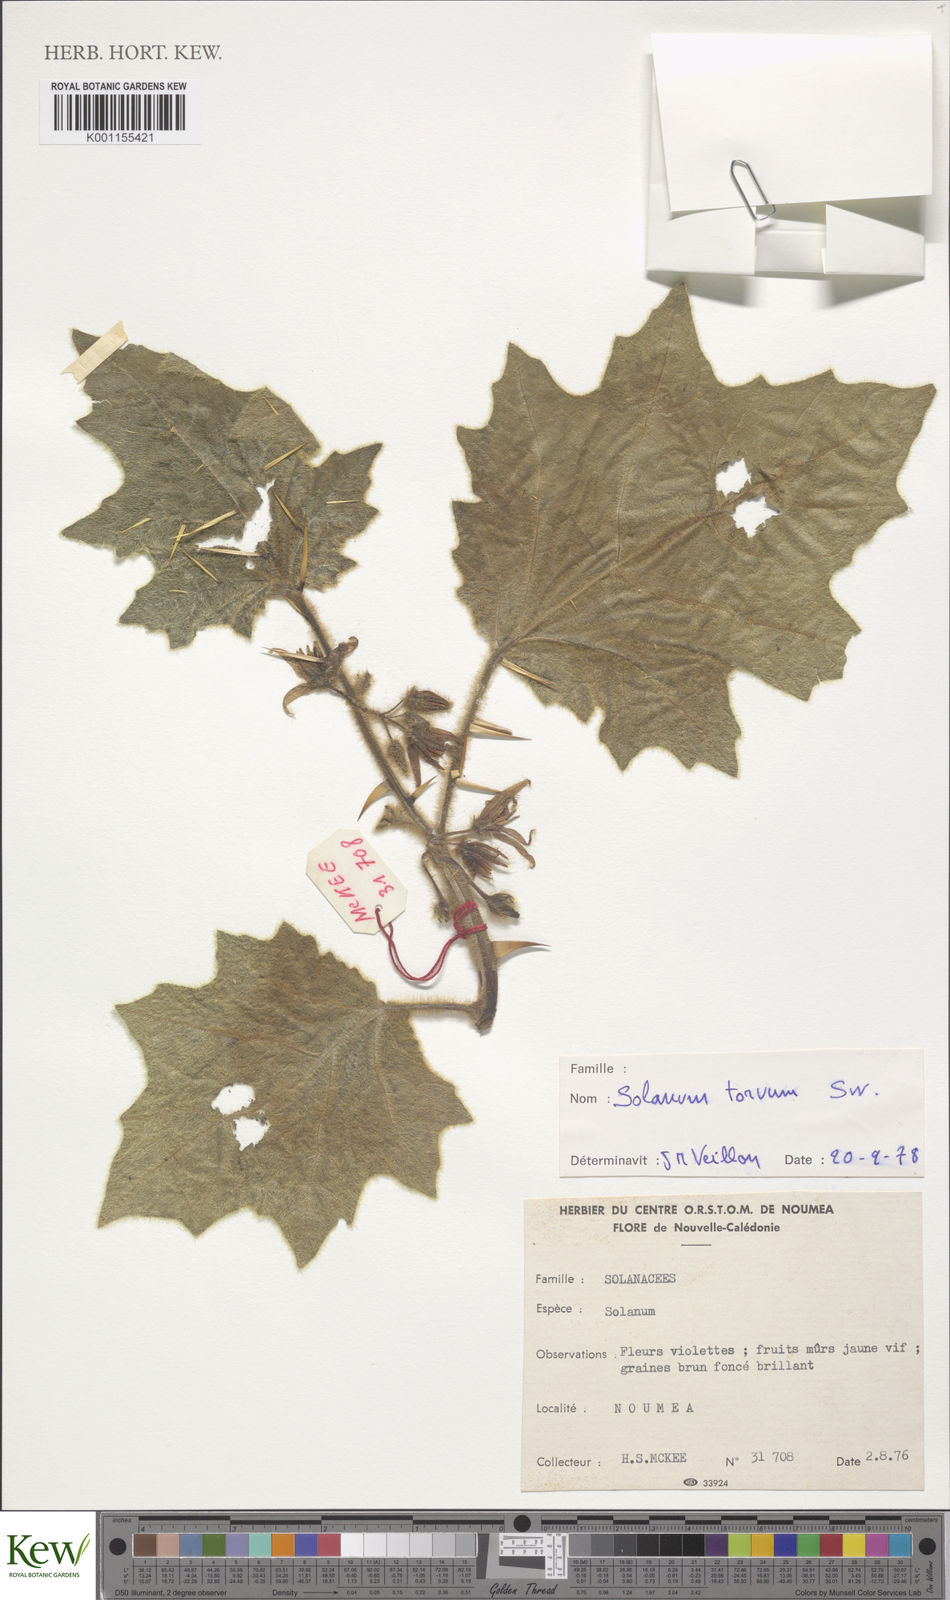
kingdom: Plantae
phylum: Tracheophyta
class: Magnoliopsida
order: Solanales
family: Solanaceae
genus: Solanum
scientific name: Solanum mammosum
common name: Nipple fruit
